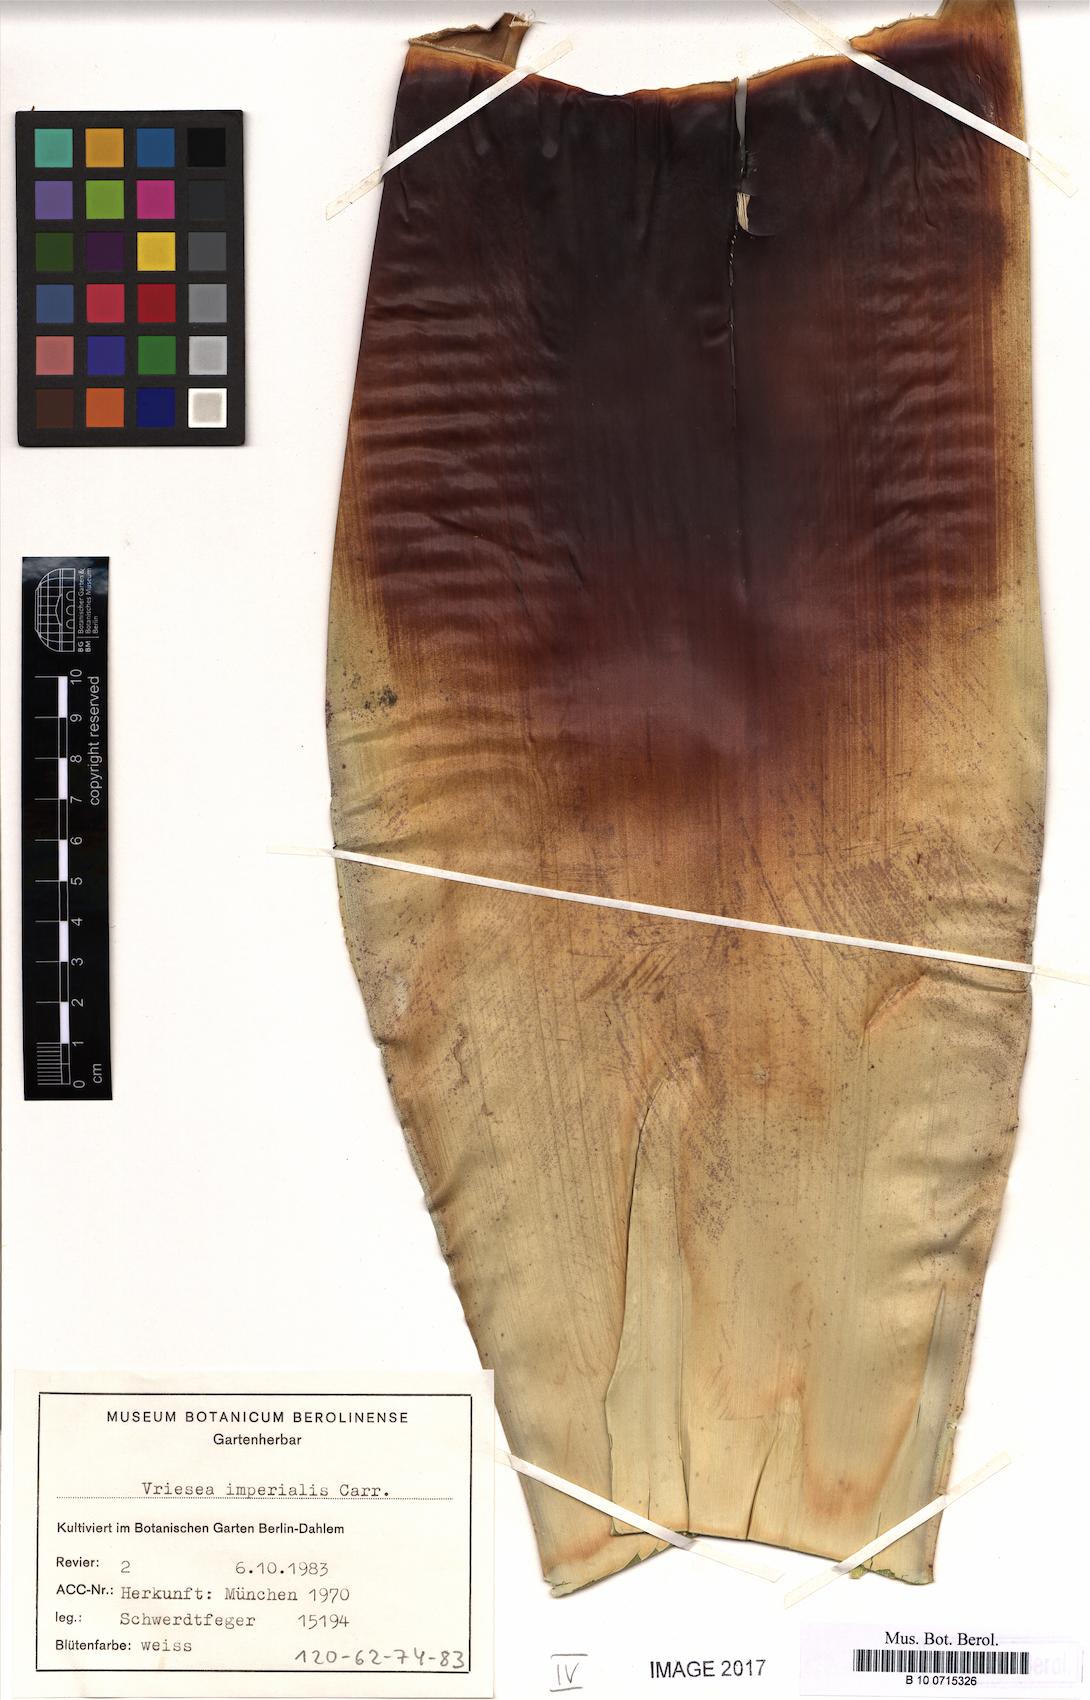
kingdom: Plantae
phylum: Tracheophyta
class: Liliopsida
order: Poales
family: Bromeliaceae
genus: Alcantarea
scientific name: Alcantarea imperialis
